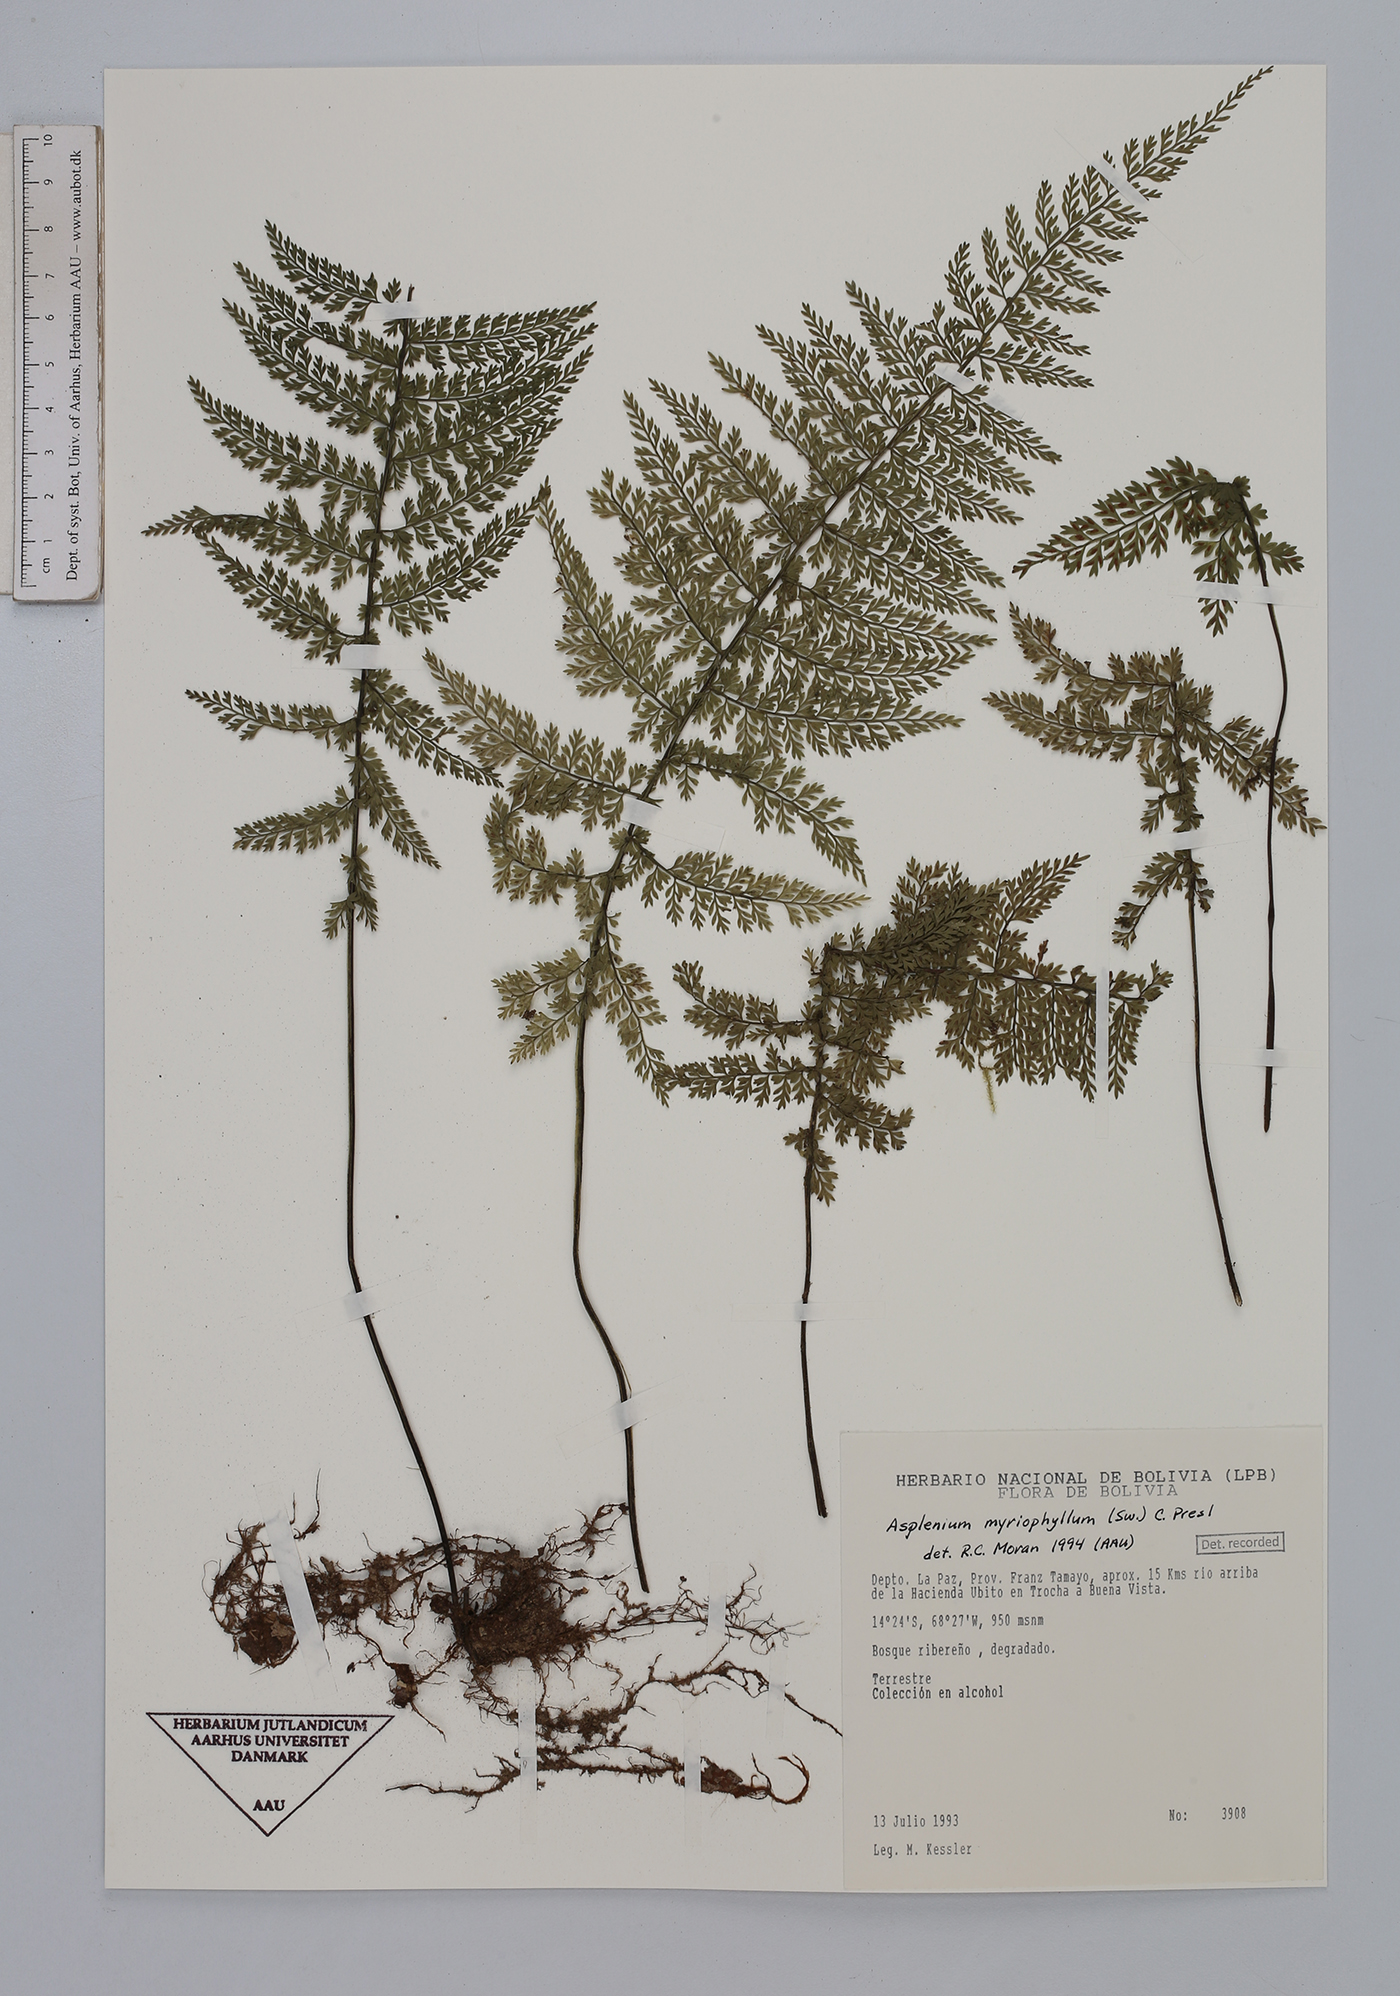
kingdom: Plantae
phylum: Tracheophyta
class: Polypodiopsida
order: Polypodiales
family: Aspleniaceae
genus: Asplenium
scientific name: Asplenium myriophyllum
